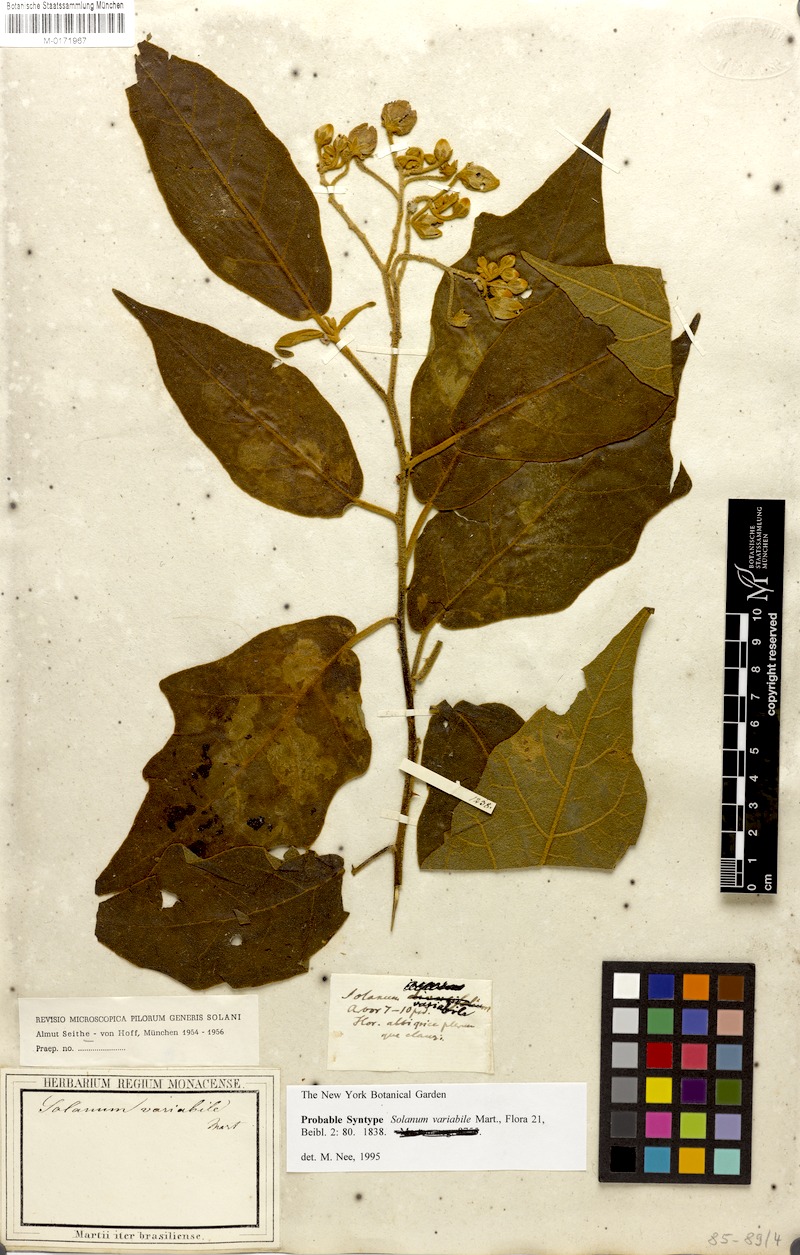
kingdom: Plantae
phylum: Tracheophyta
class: Magnoliopsida
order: Solanales
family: Solanaceae
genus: Solanum
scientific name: Solanum variabile
